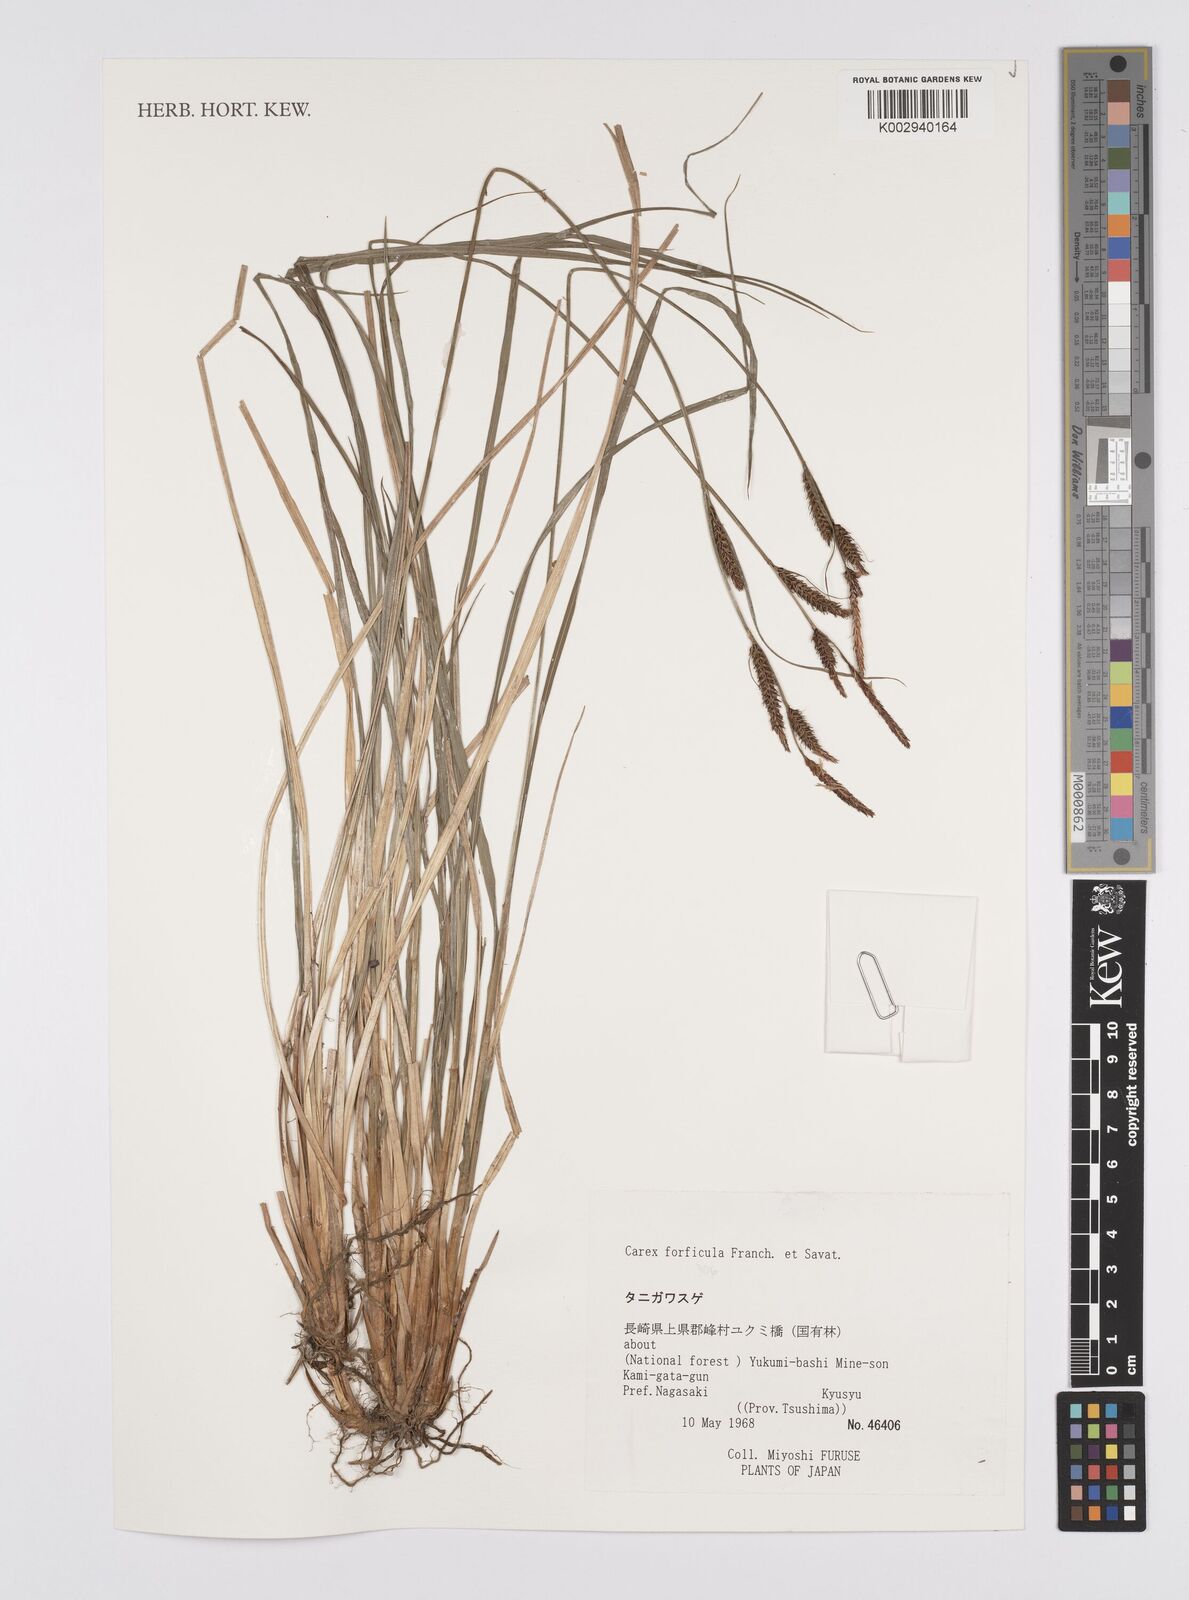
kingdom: Plantae
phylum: Tracheophyta
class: Liliopsida
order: Poales
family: Cyperaceae
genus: Carex
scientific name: Carex forficula
